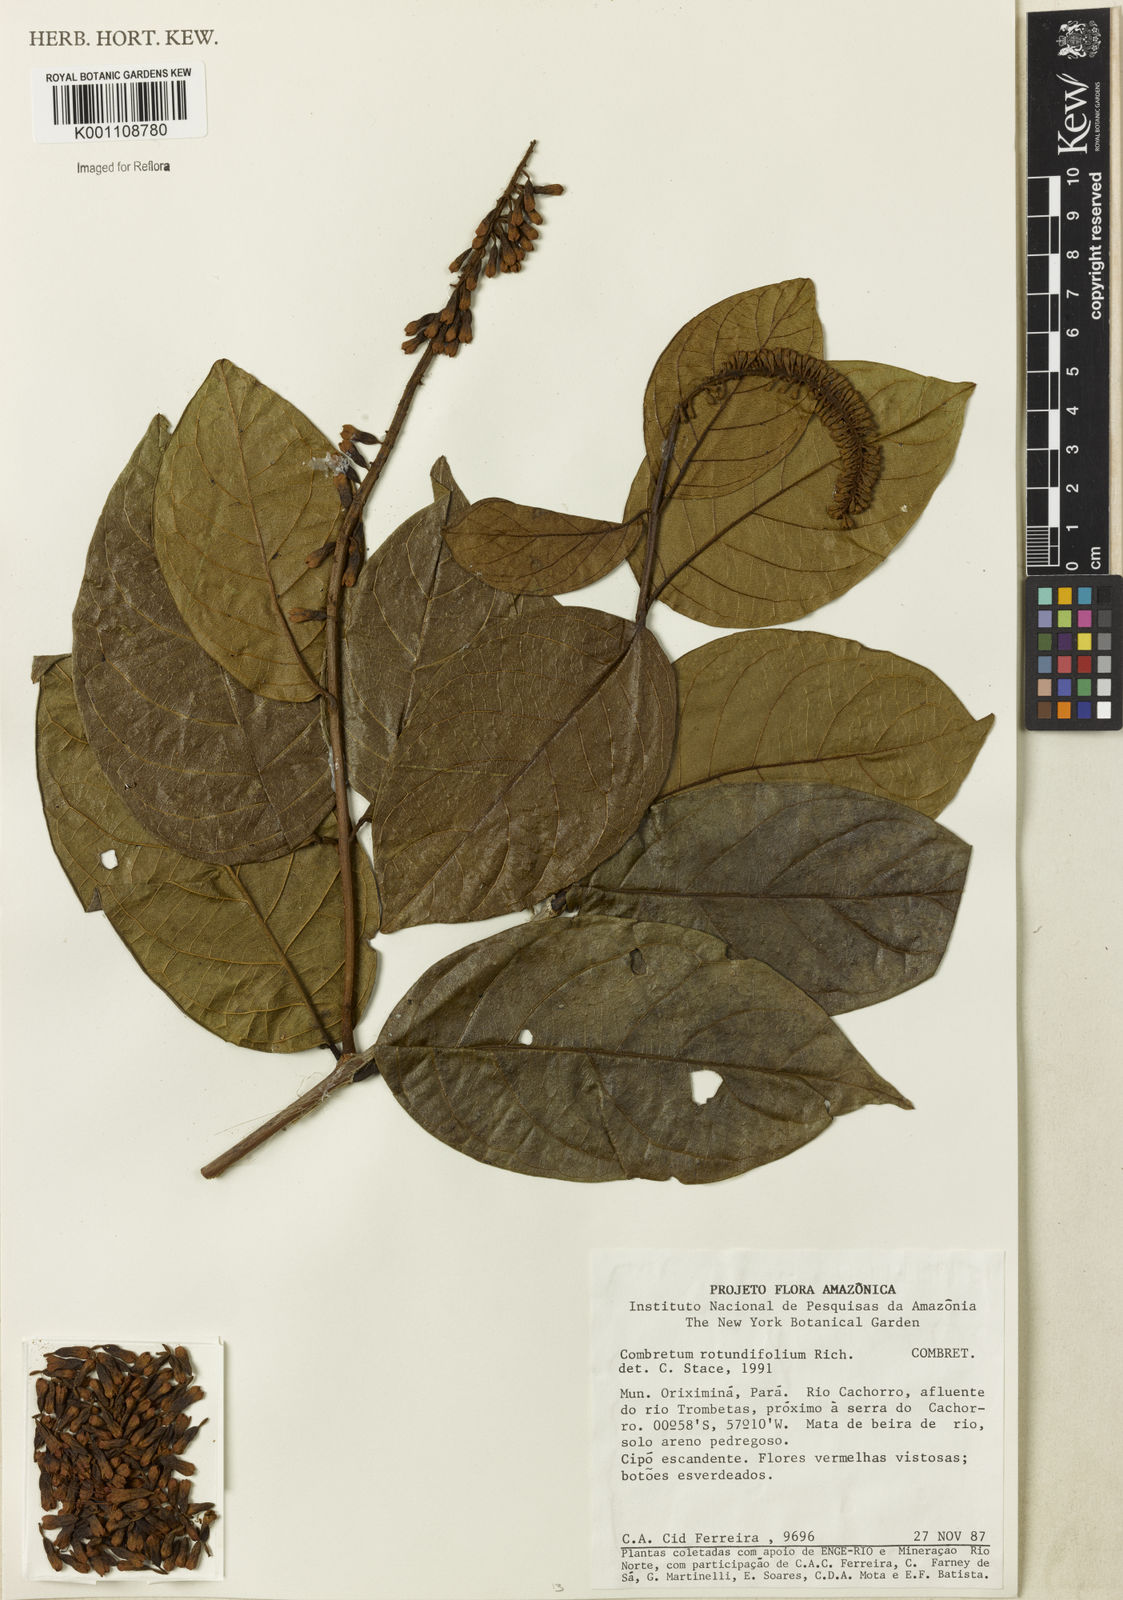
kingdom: Plantae
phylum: Tracheophyta
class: Magnoliopsida
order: Myrtales
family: Combretaceae
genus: Combretum
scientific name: Combretum rotundifolium
